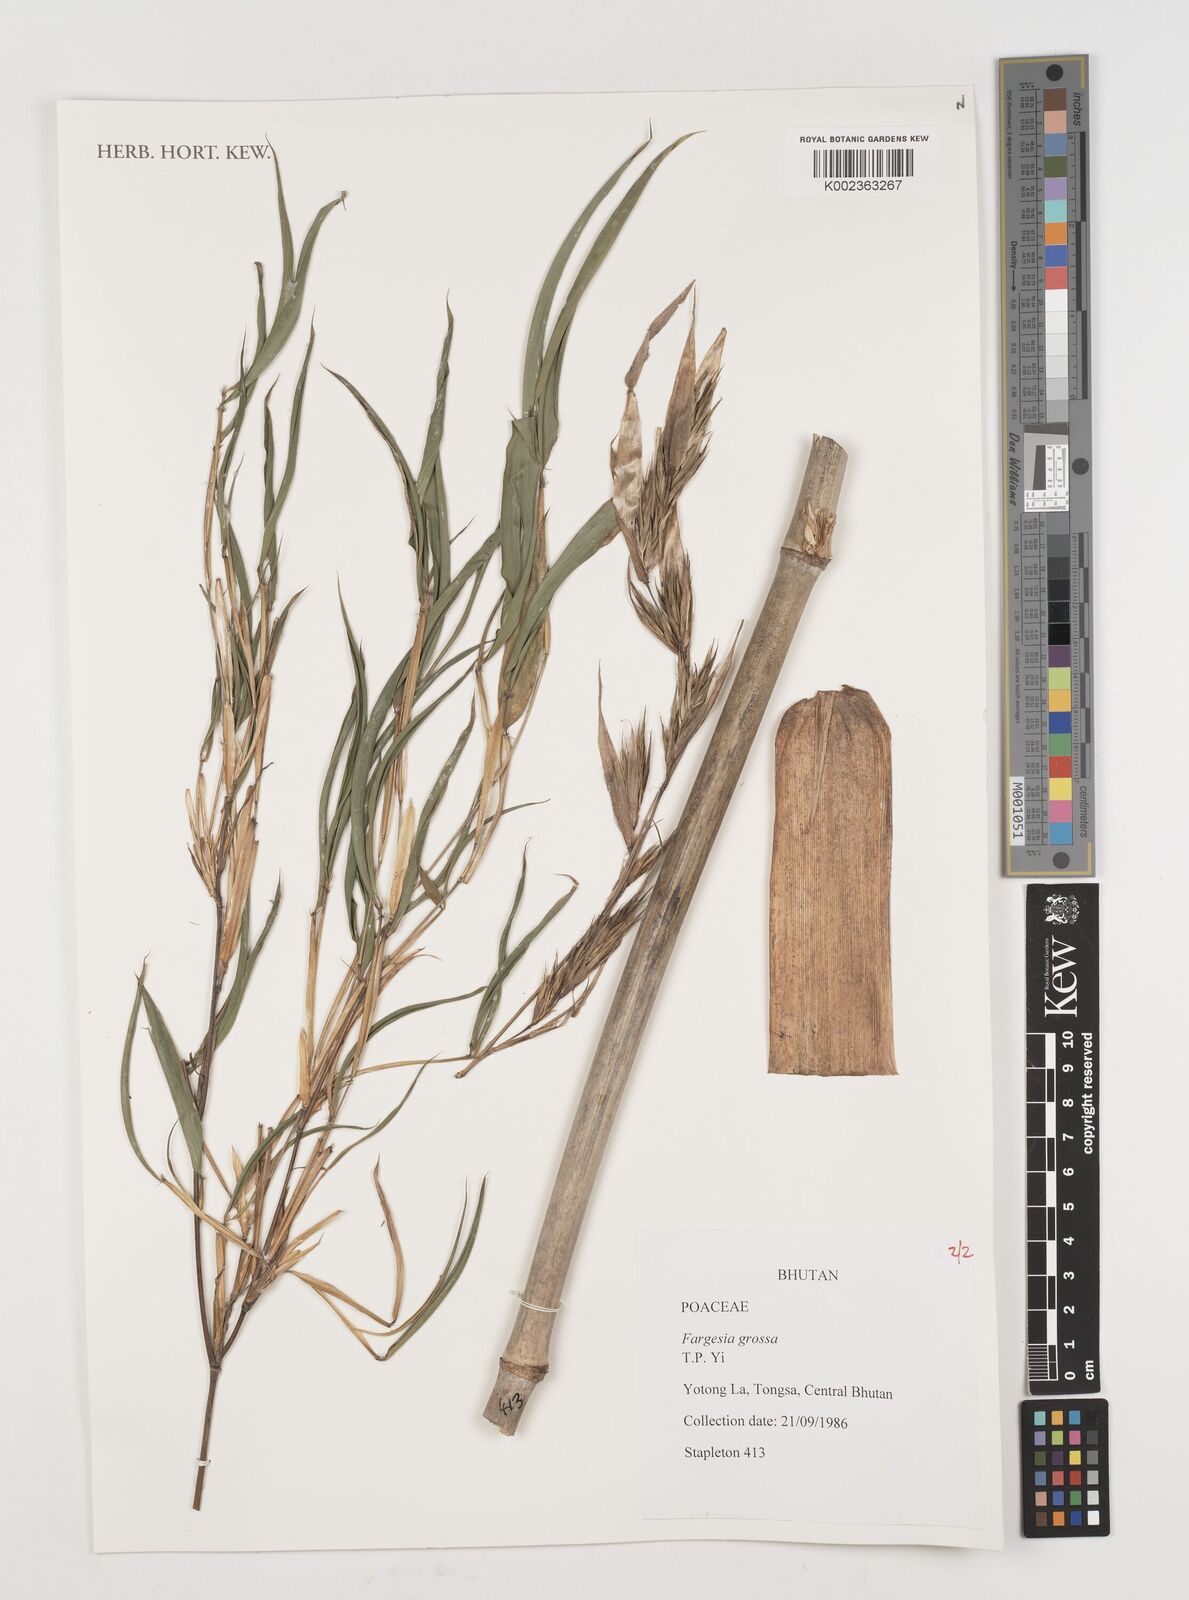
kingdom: Plantae
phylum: Tracheophyta
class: Liliopsida
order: Poales
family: Poaceae
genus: Borinda
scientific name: Borinda grossa
